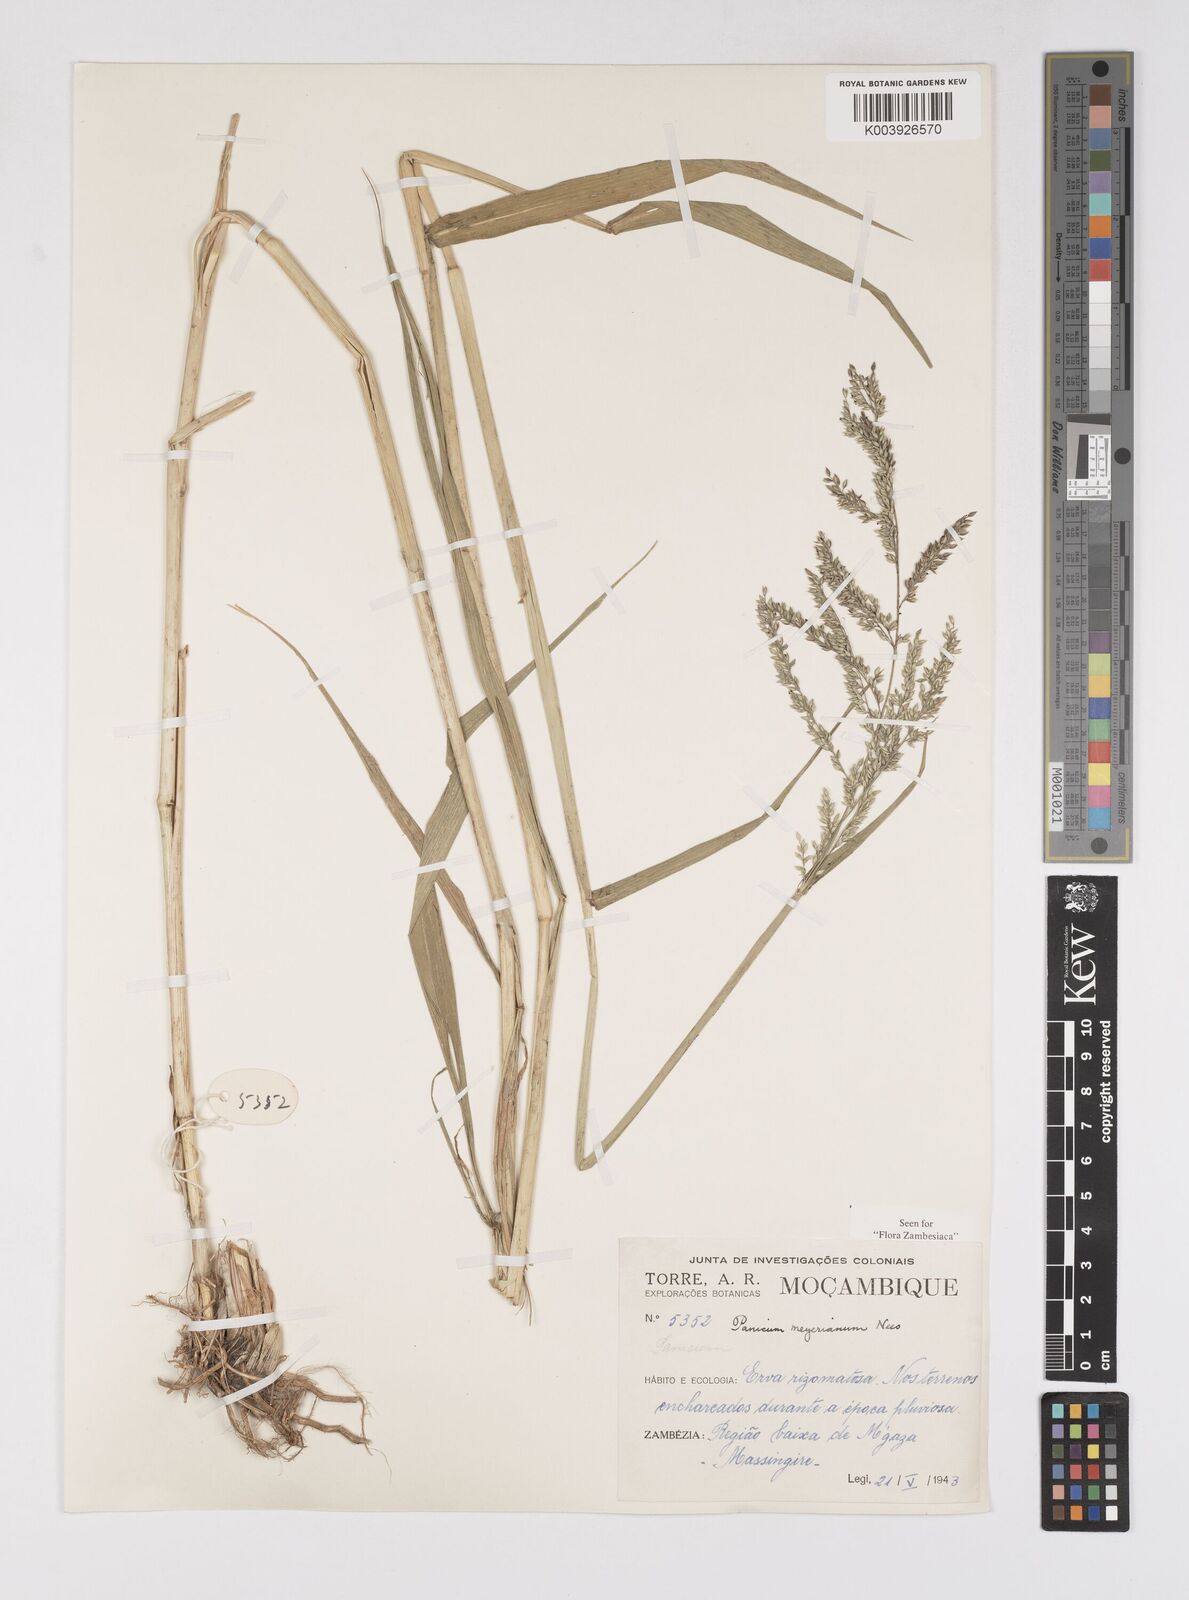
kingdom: Plantae
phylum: Tracheophyta
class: Liliopsida
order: Poales
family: Poaceae
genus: Eriochloa
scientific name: Eriochloa meyeriana
